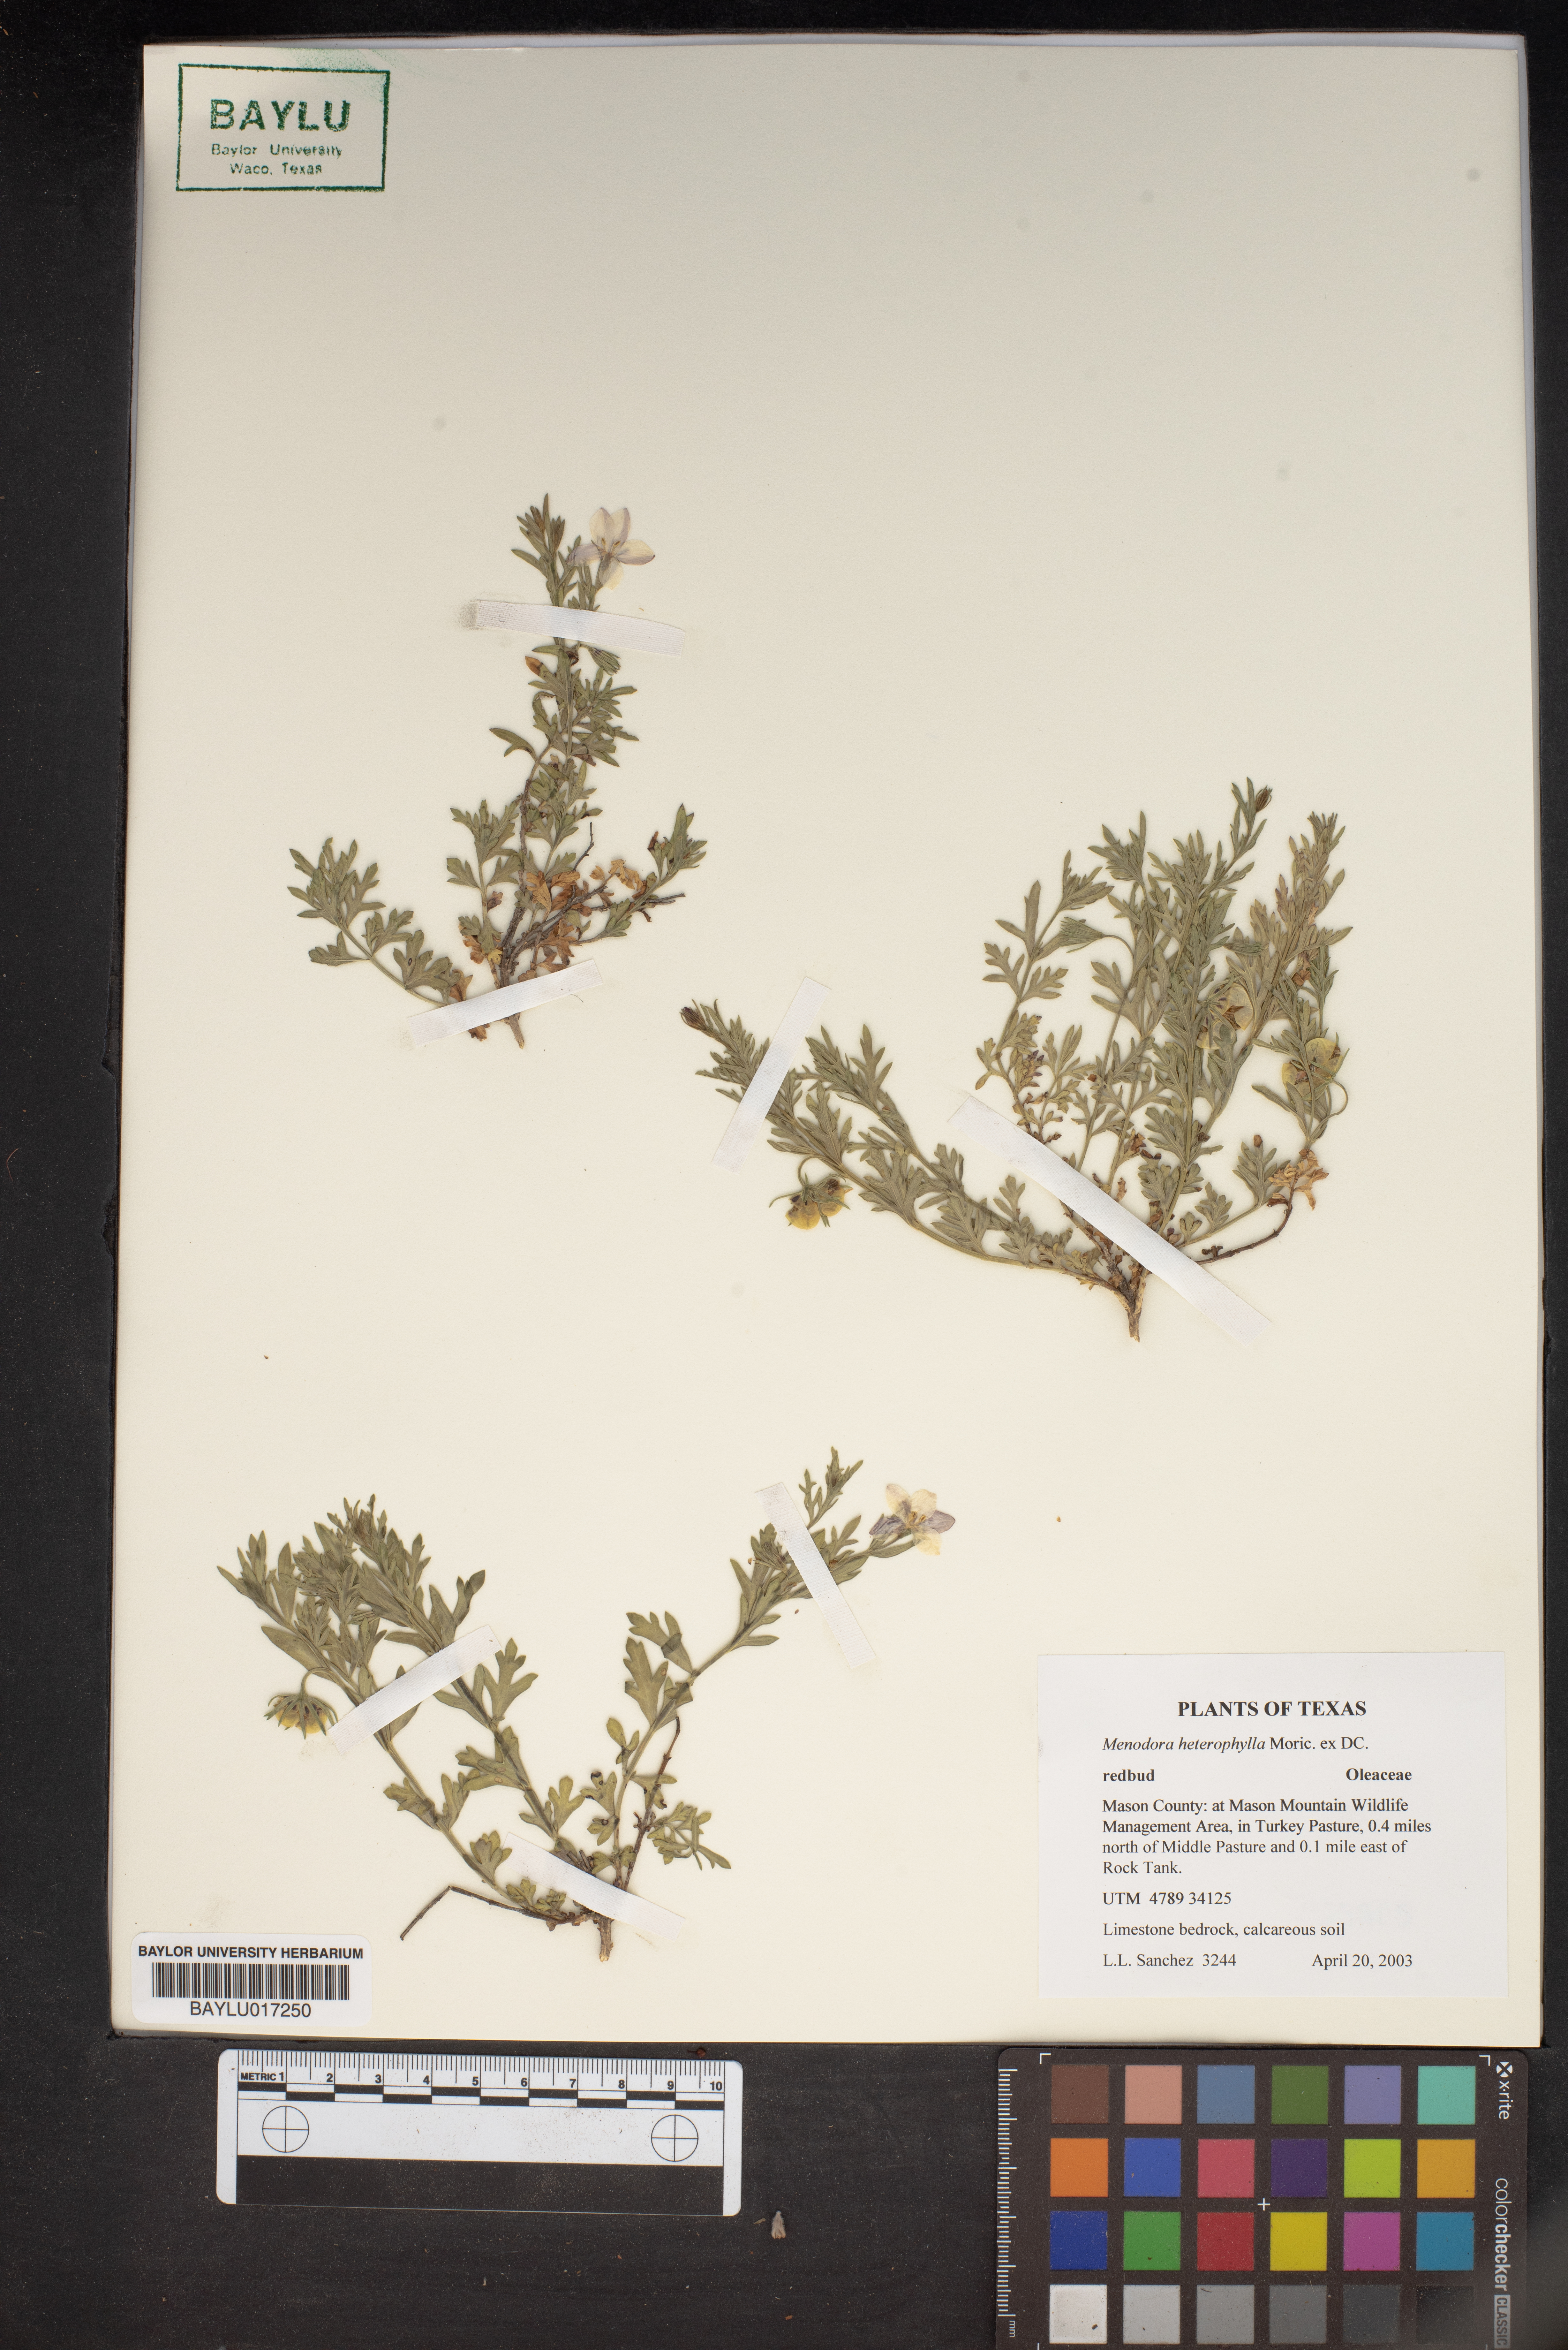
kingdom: Plantae
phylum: Tracheophyta
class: Magnoliopsida
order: Lamiales
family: Oleaceae
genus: Menodora
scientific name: Menodora heterophylla
